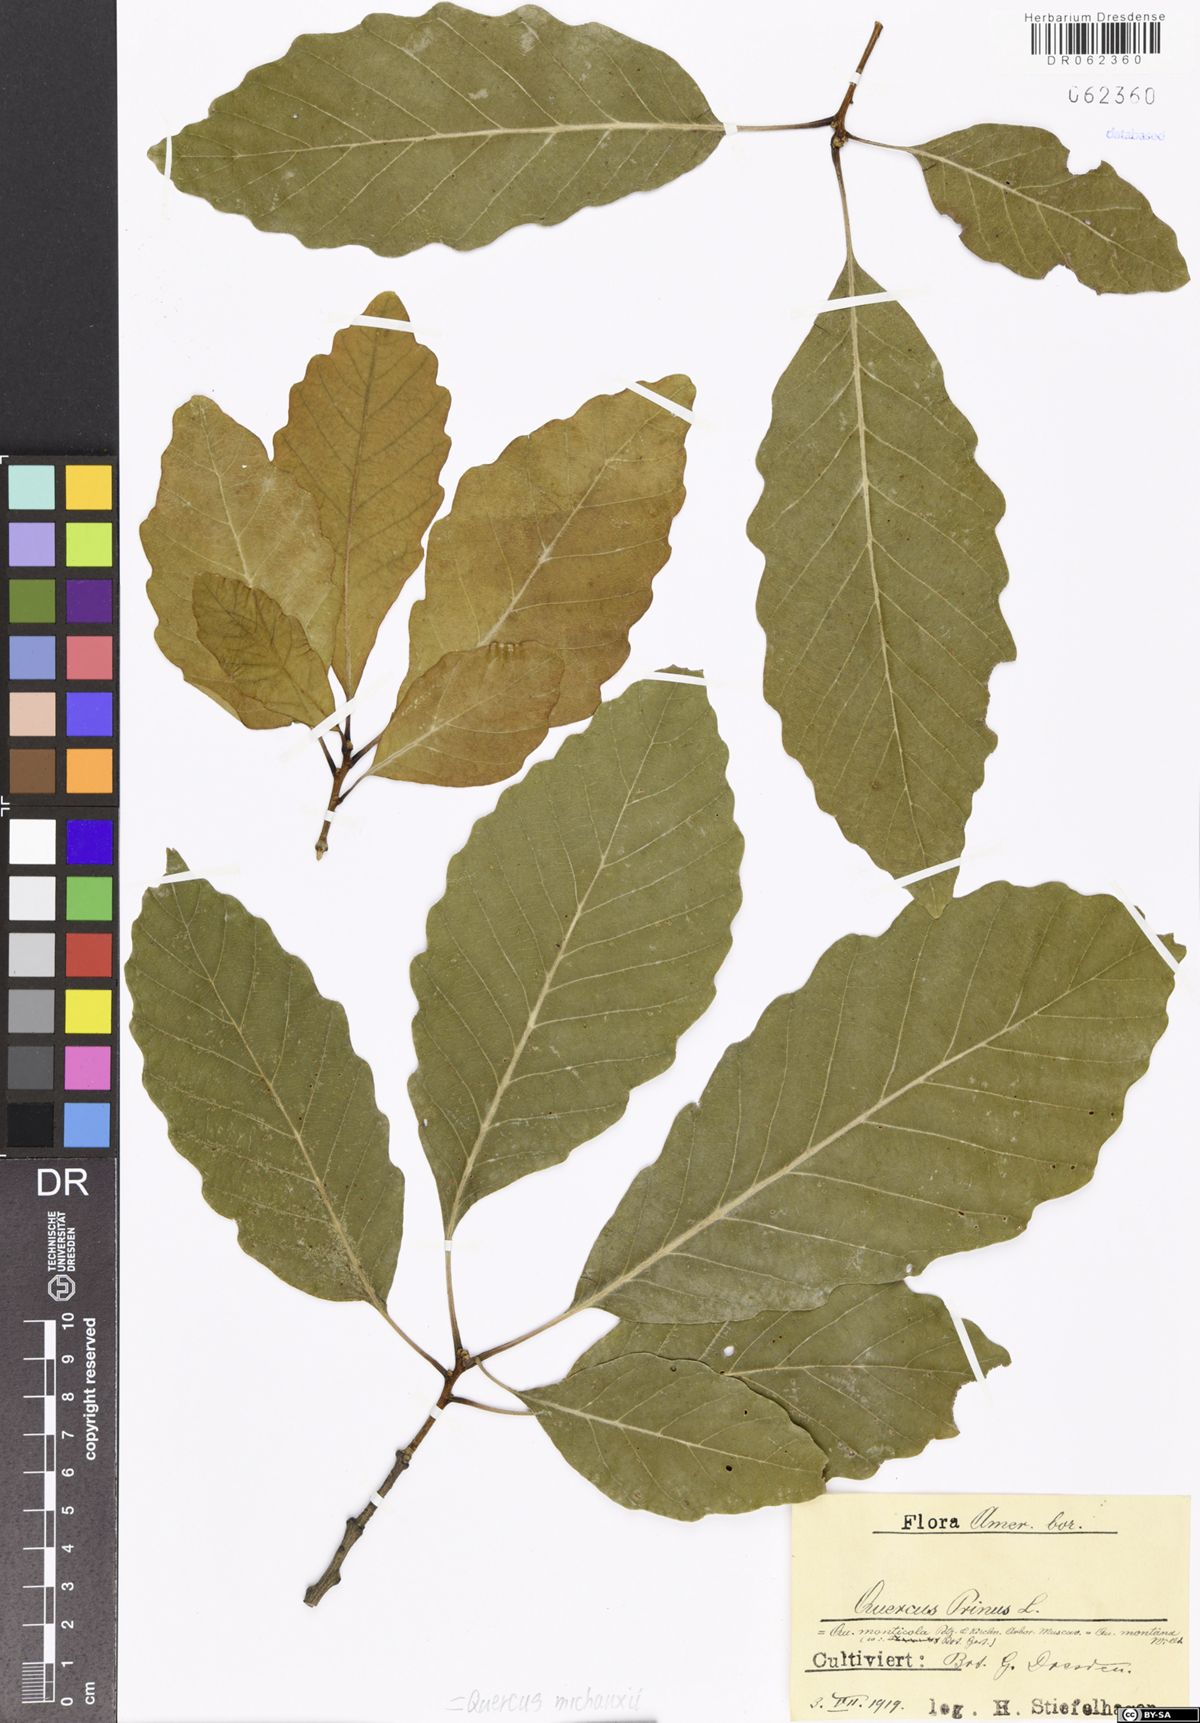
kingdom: Plantae
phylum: Tracheophyta
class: Magnoliopsida
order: Fagales
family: Fagaceae
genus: Quercus
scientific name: Quercus michauxii
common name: Swamp chestnut oak
